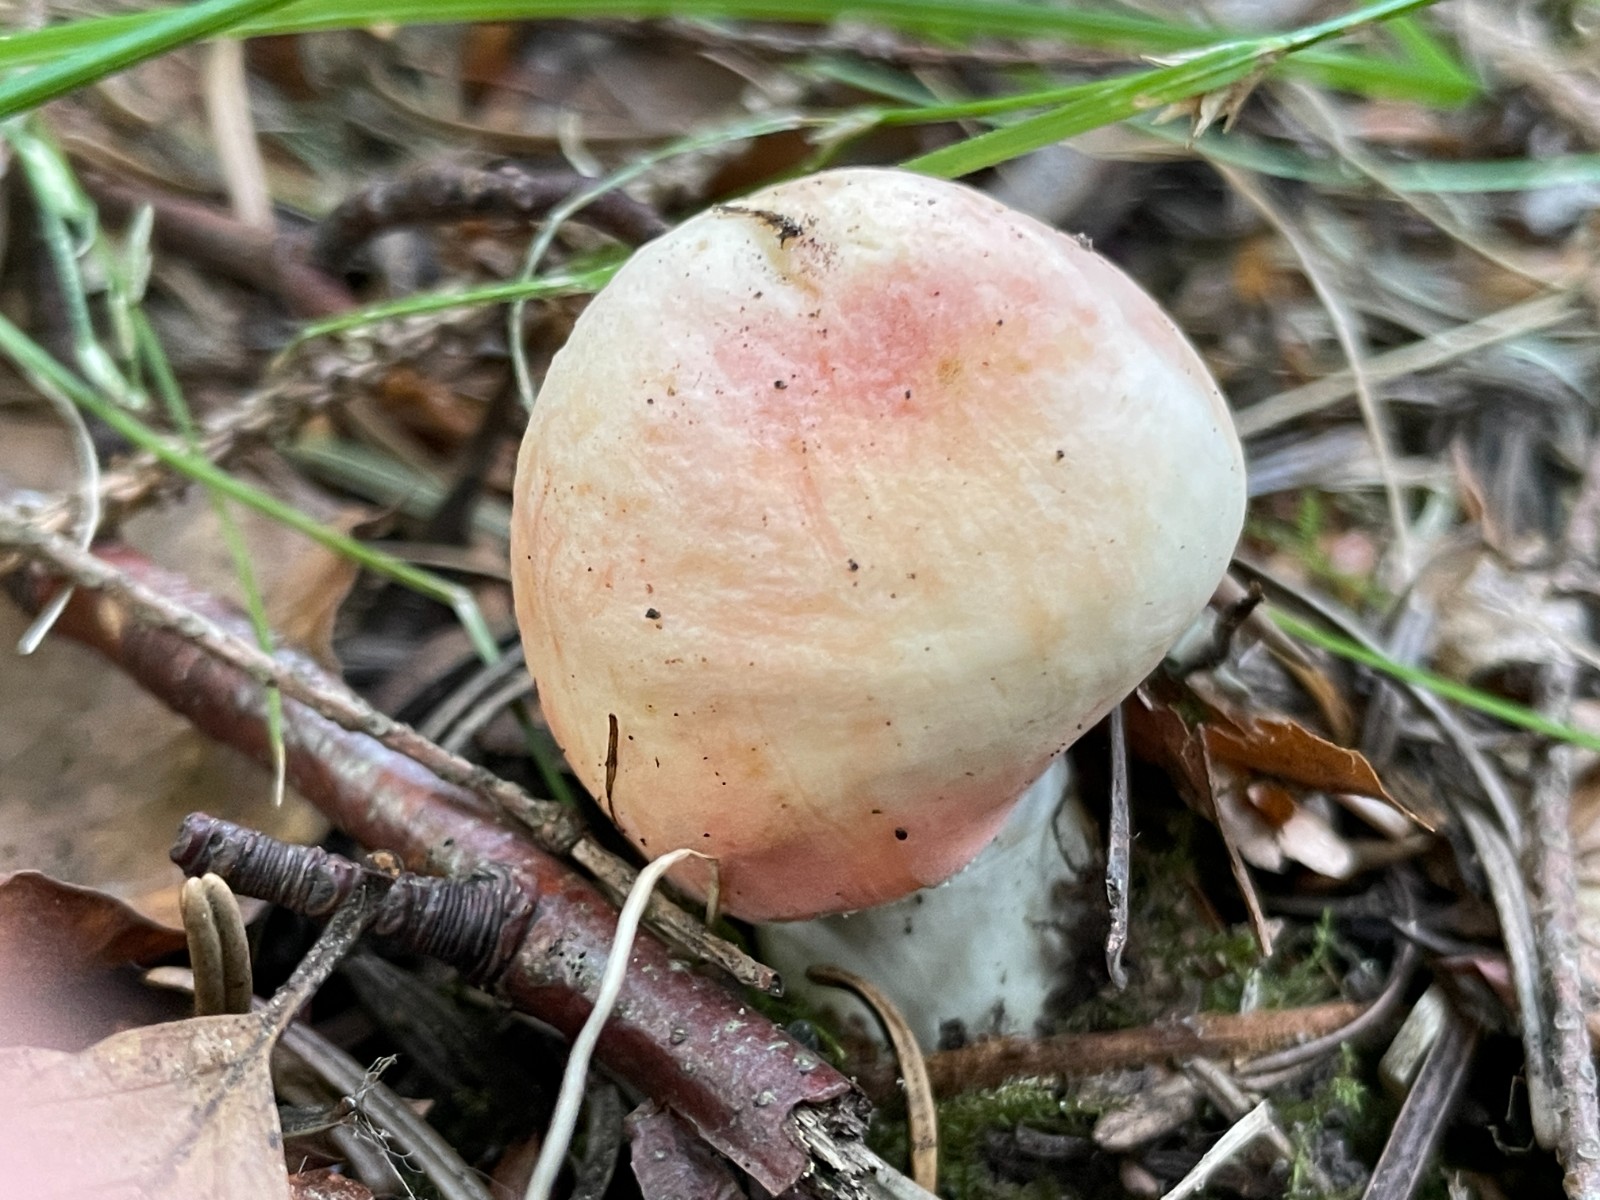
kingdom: Fungi
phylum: Basidiomycota
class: Agaricomycetes
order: Russulales
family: Russulaceae
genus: Russula
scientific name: Russula rosea
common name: fastkødet skørhat
